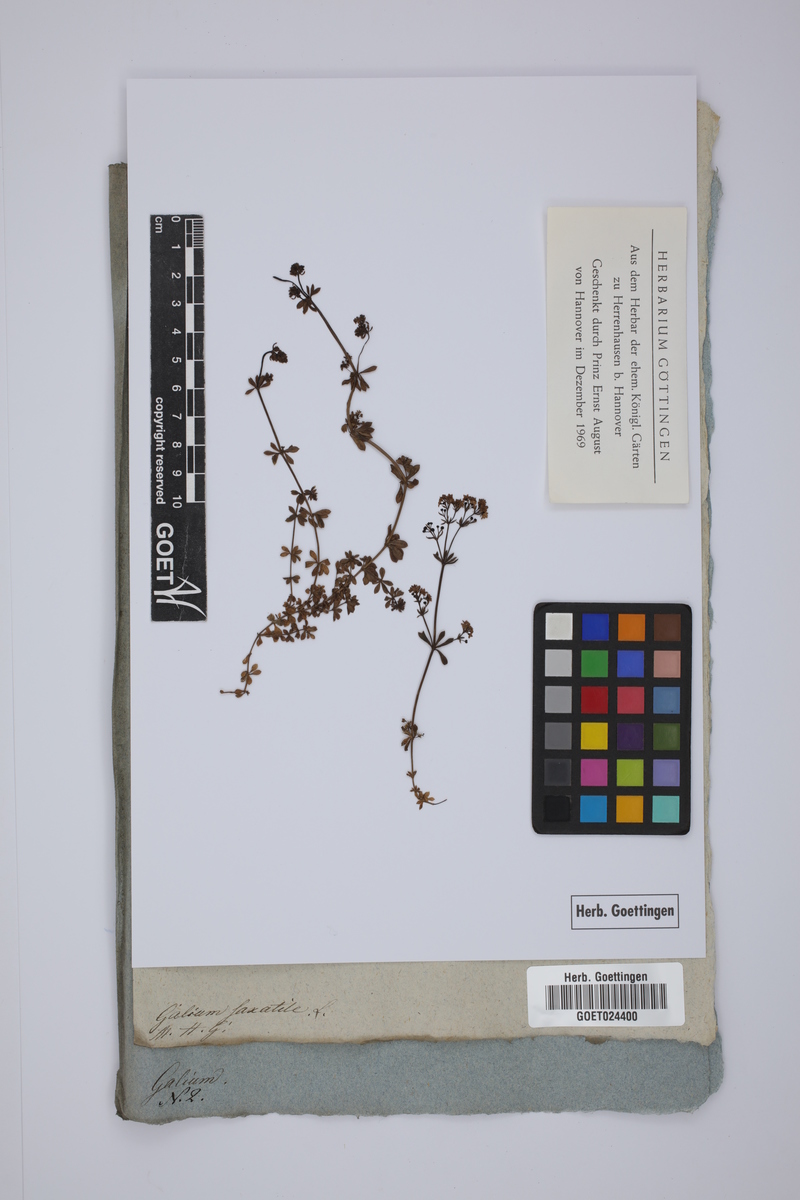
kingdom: Plantae
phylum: Tracheophyta
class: Magnoliopsida
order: Gentianales
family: Rubiaceae
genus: Galium
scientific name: Galium saxatile
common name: Heath bedstraw
